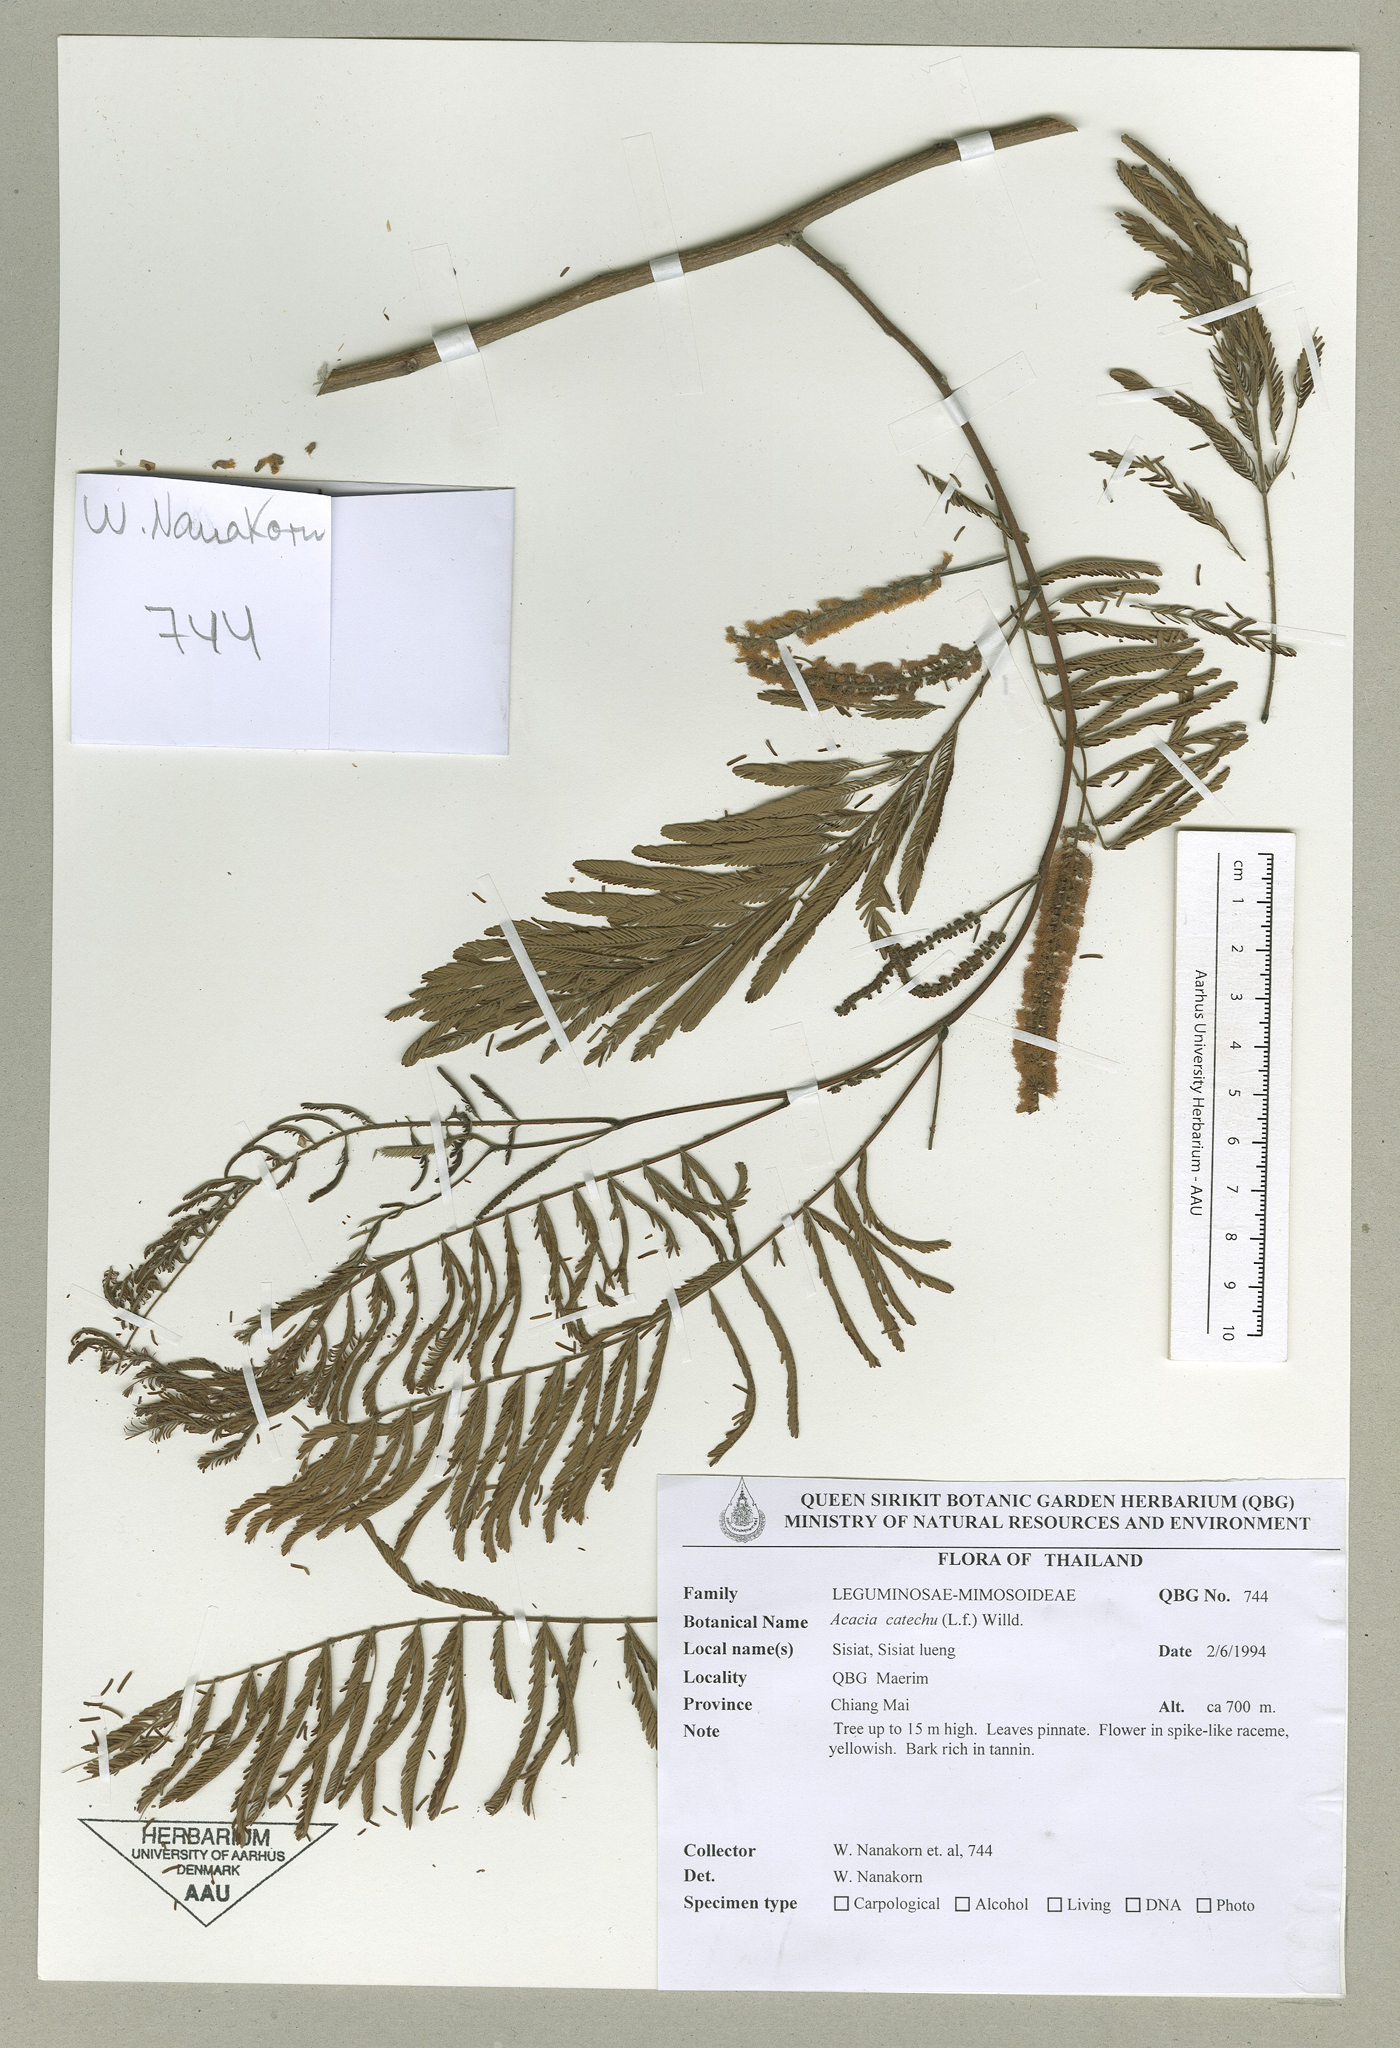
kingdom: Plantae
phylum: Tracheophyta
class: Magnoliopsida
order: Fabales
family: Fabaceae
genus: Senegalia
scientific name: Senegalia catechu
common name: Black cutch
